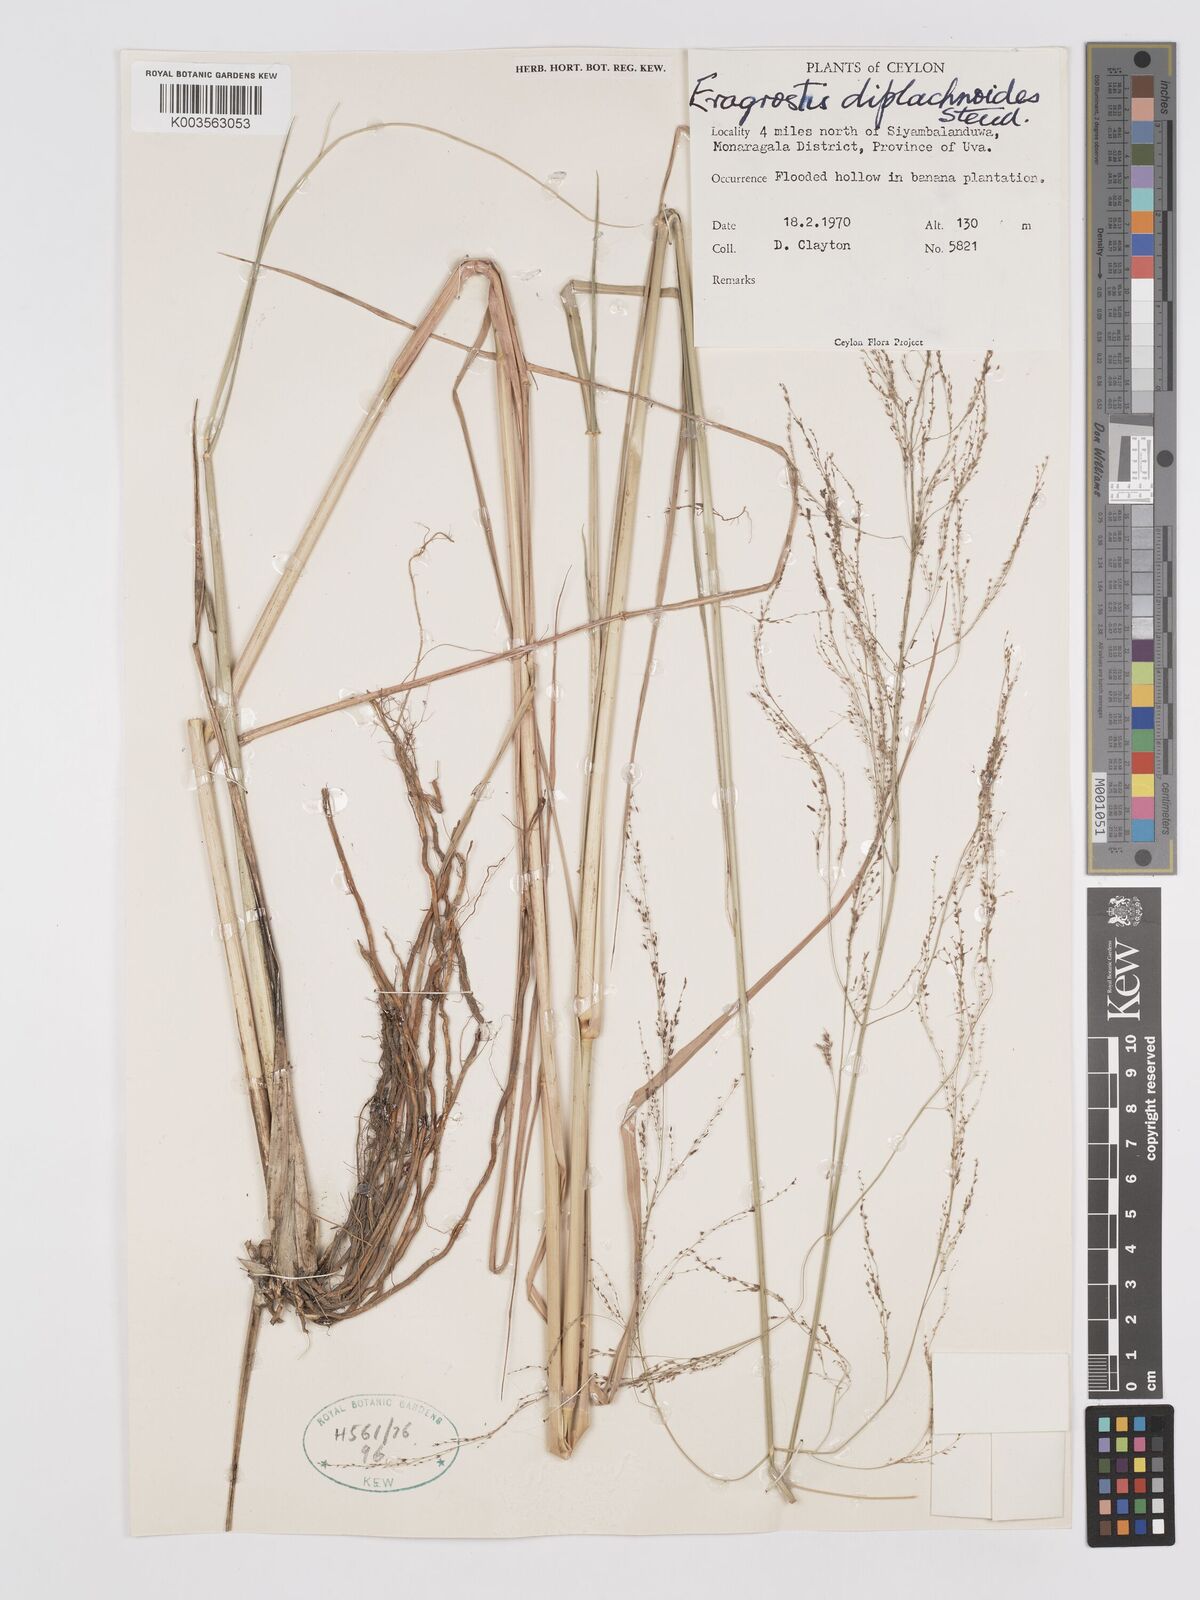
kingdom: Plantae
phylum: Tracheophyta
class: Liliopsida
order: Poales
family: Poaceae
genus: Eragrostis
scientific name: Eragrostis japonica
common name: Pond lovegrass
